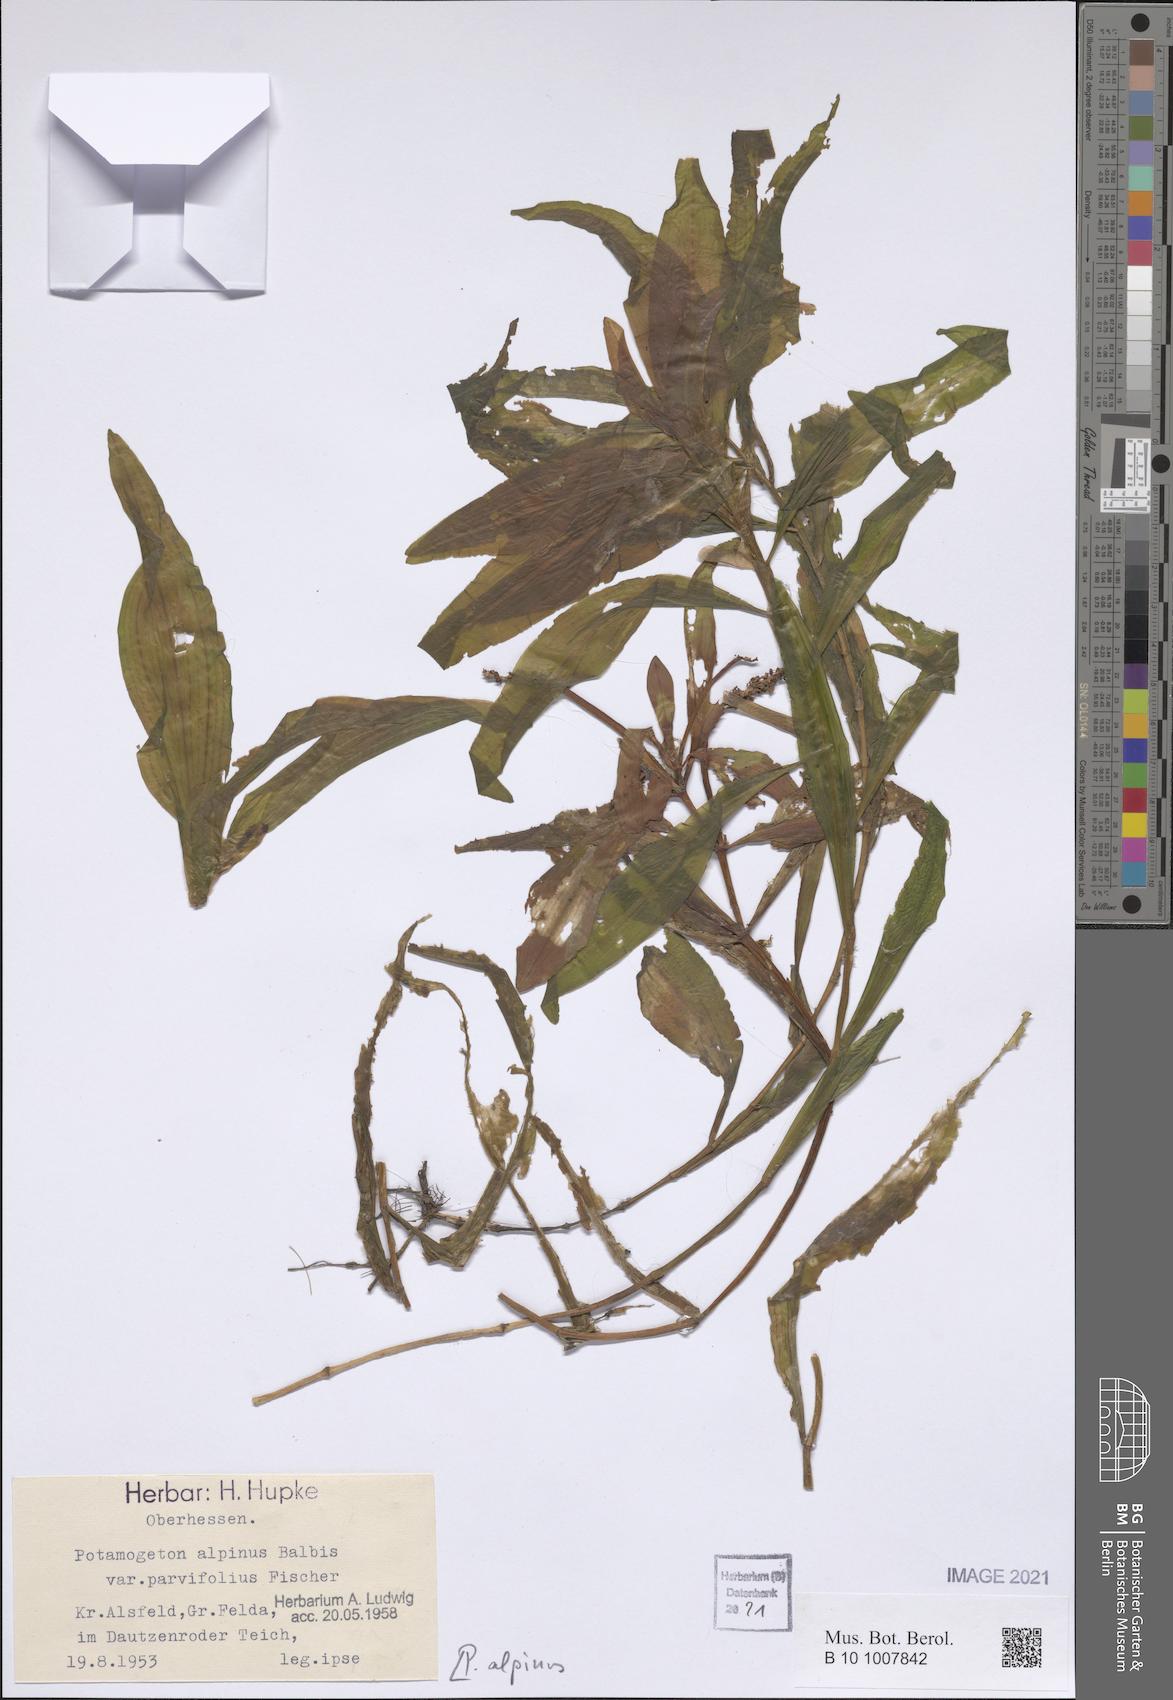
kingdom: Plantae
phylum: Tracheophyta
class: Liliopsida
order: Alismatales
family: Potamogetonaceae
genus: Potamogeton
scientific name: Potamogeton alpinus
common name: Red pondweed
